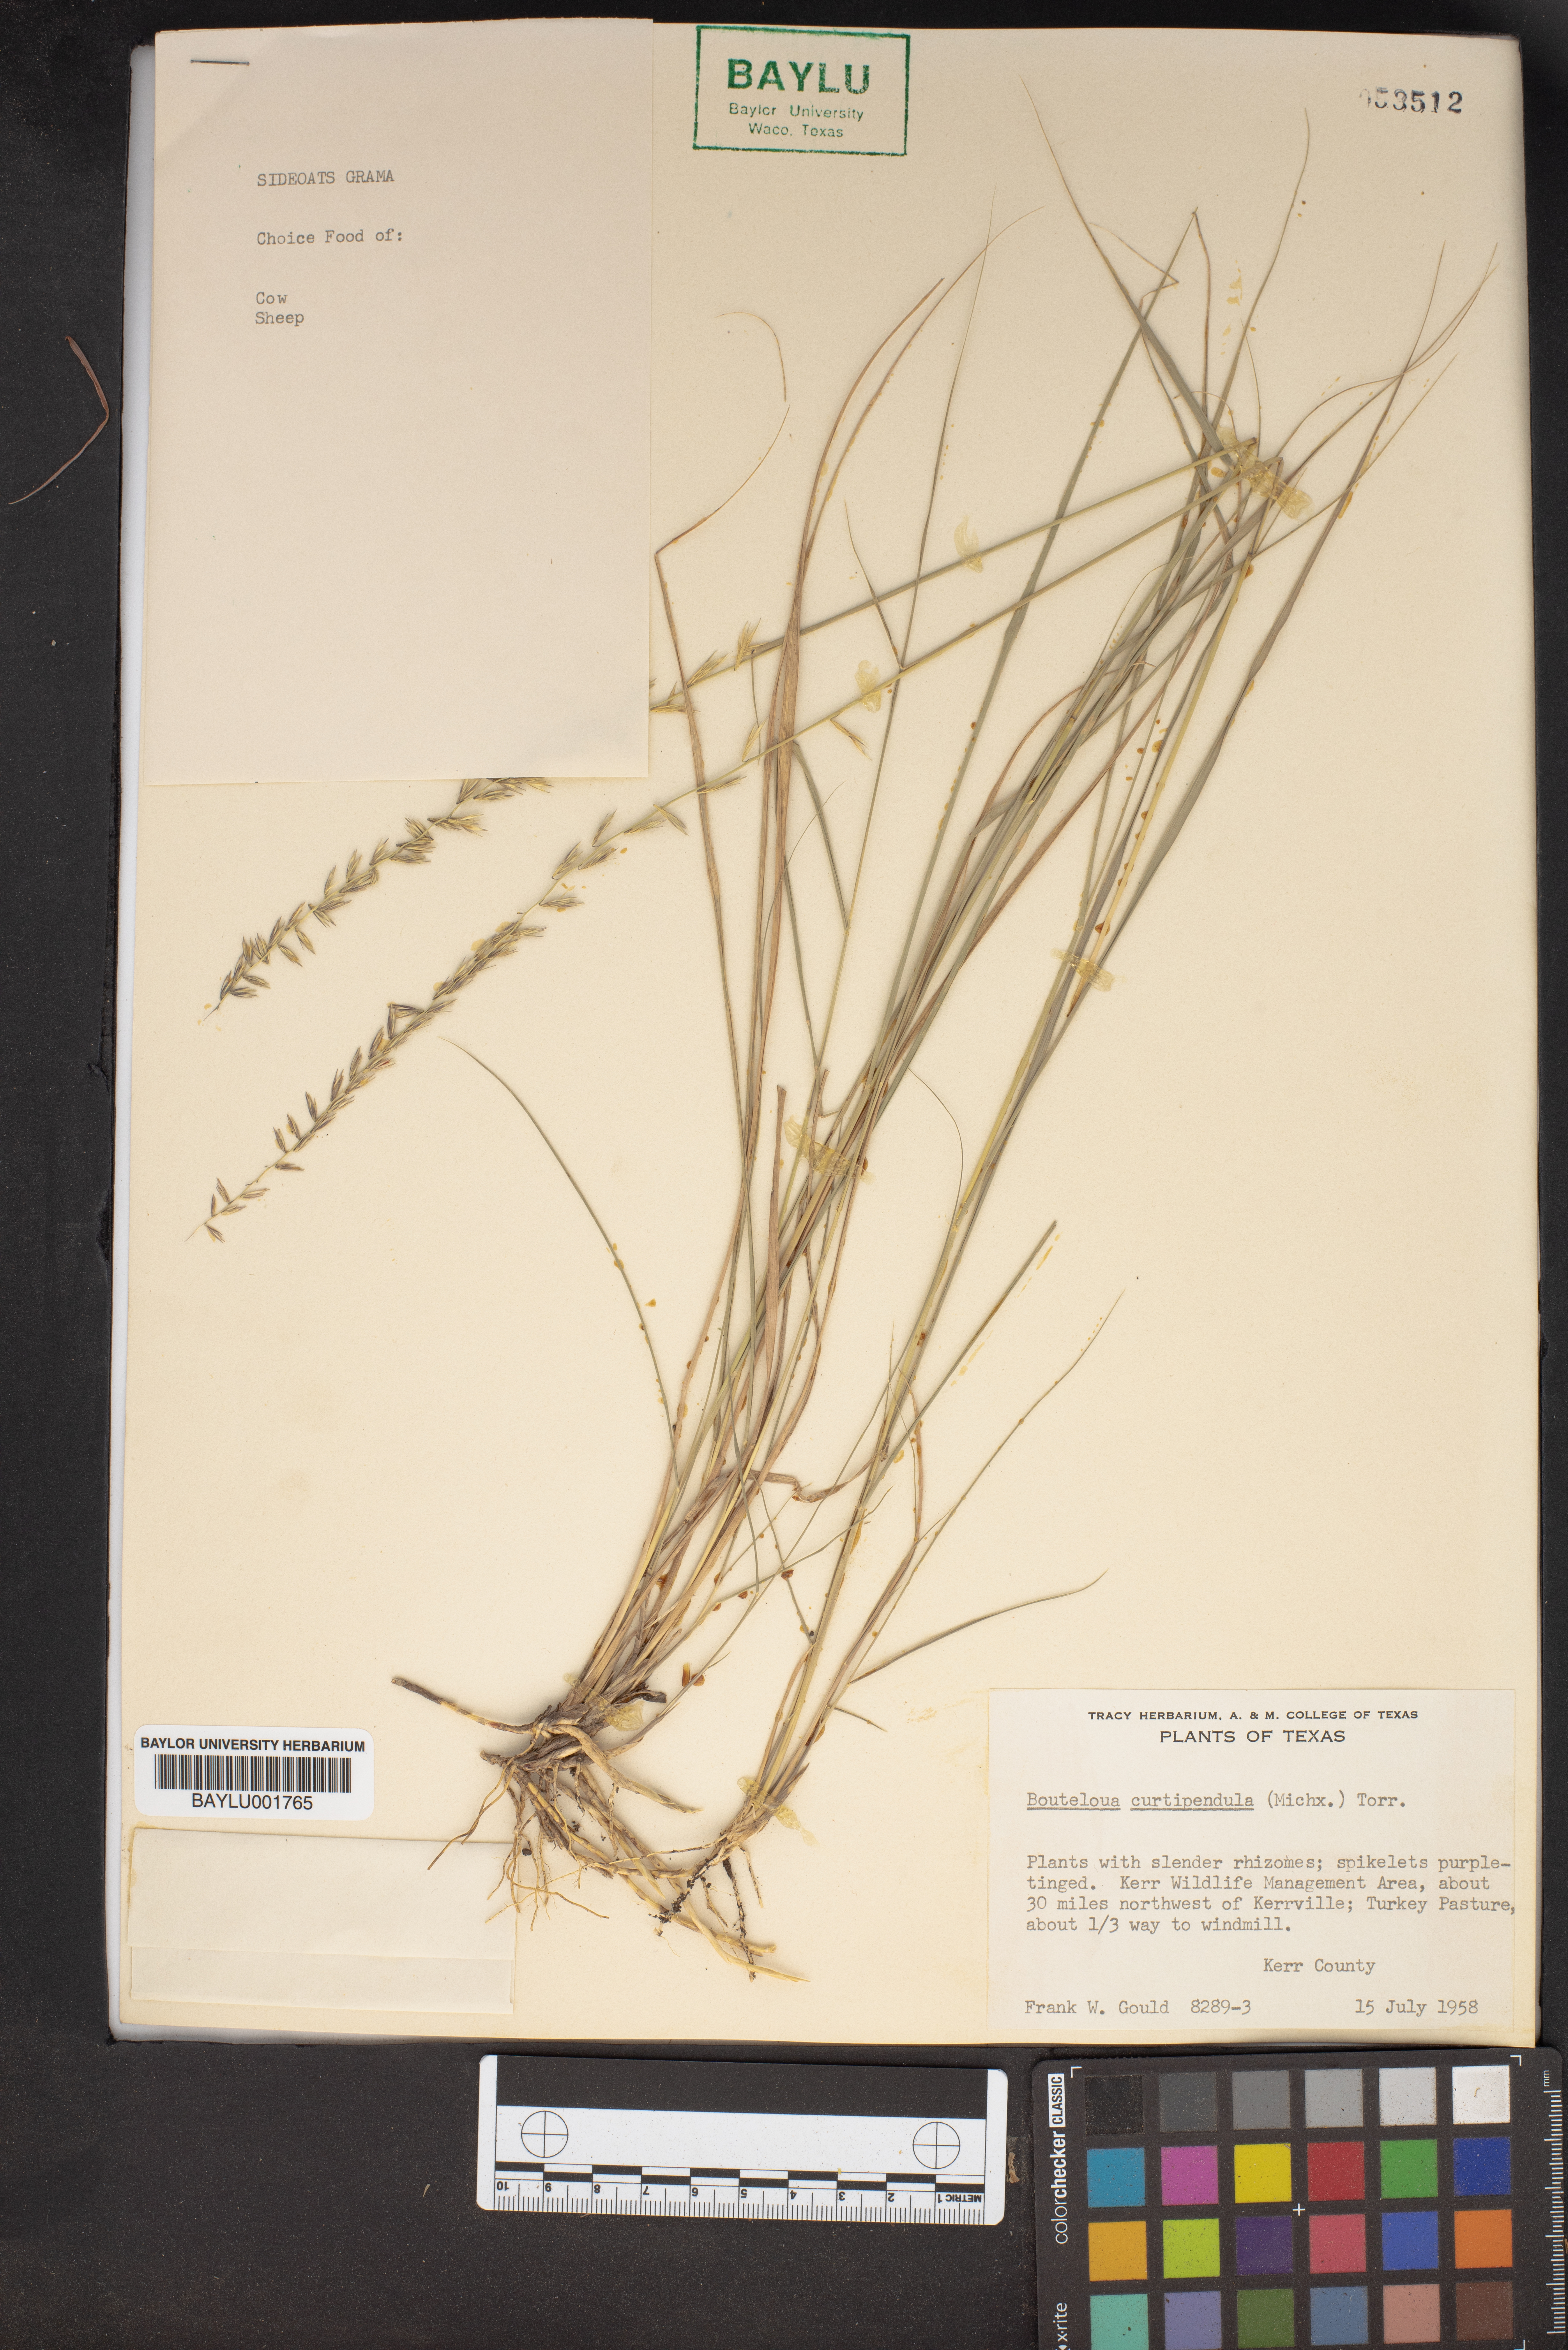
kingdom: Plantae
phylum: Tracheophyta
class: Liliopsida
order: Poales
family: Poaceae
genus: Bouteloua
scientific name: Bouteloua curtipendula
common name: Side-oats grama
